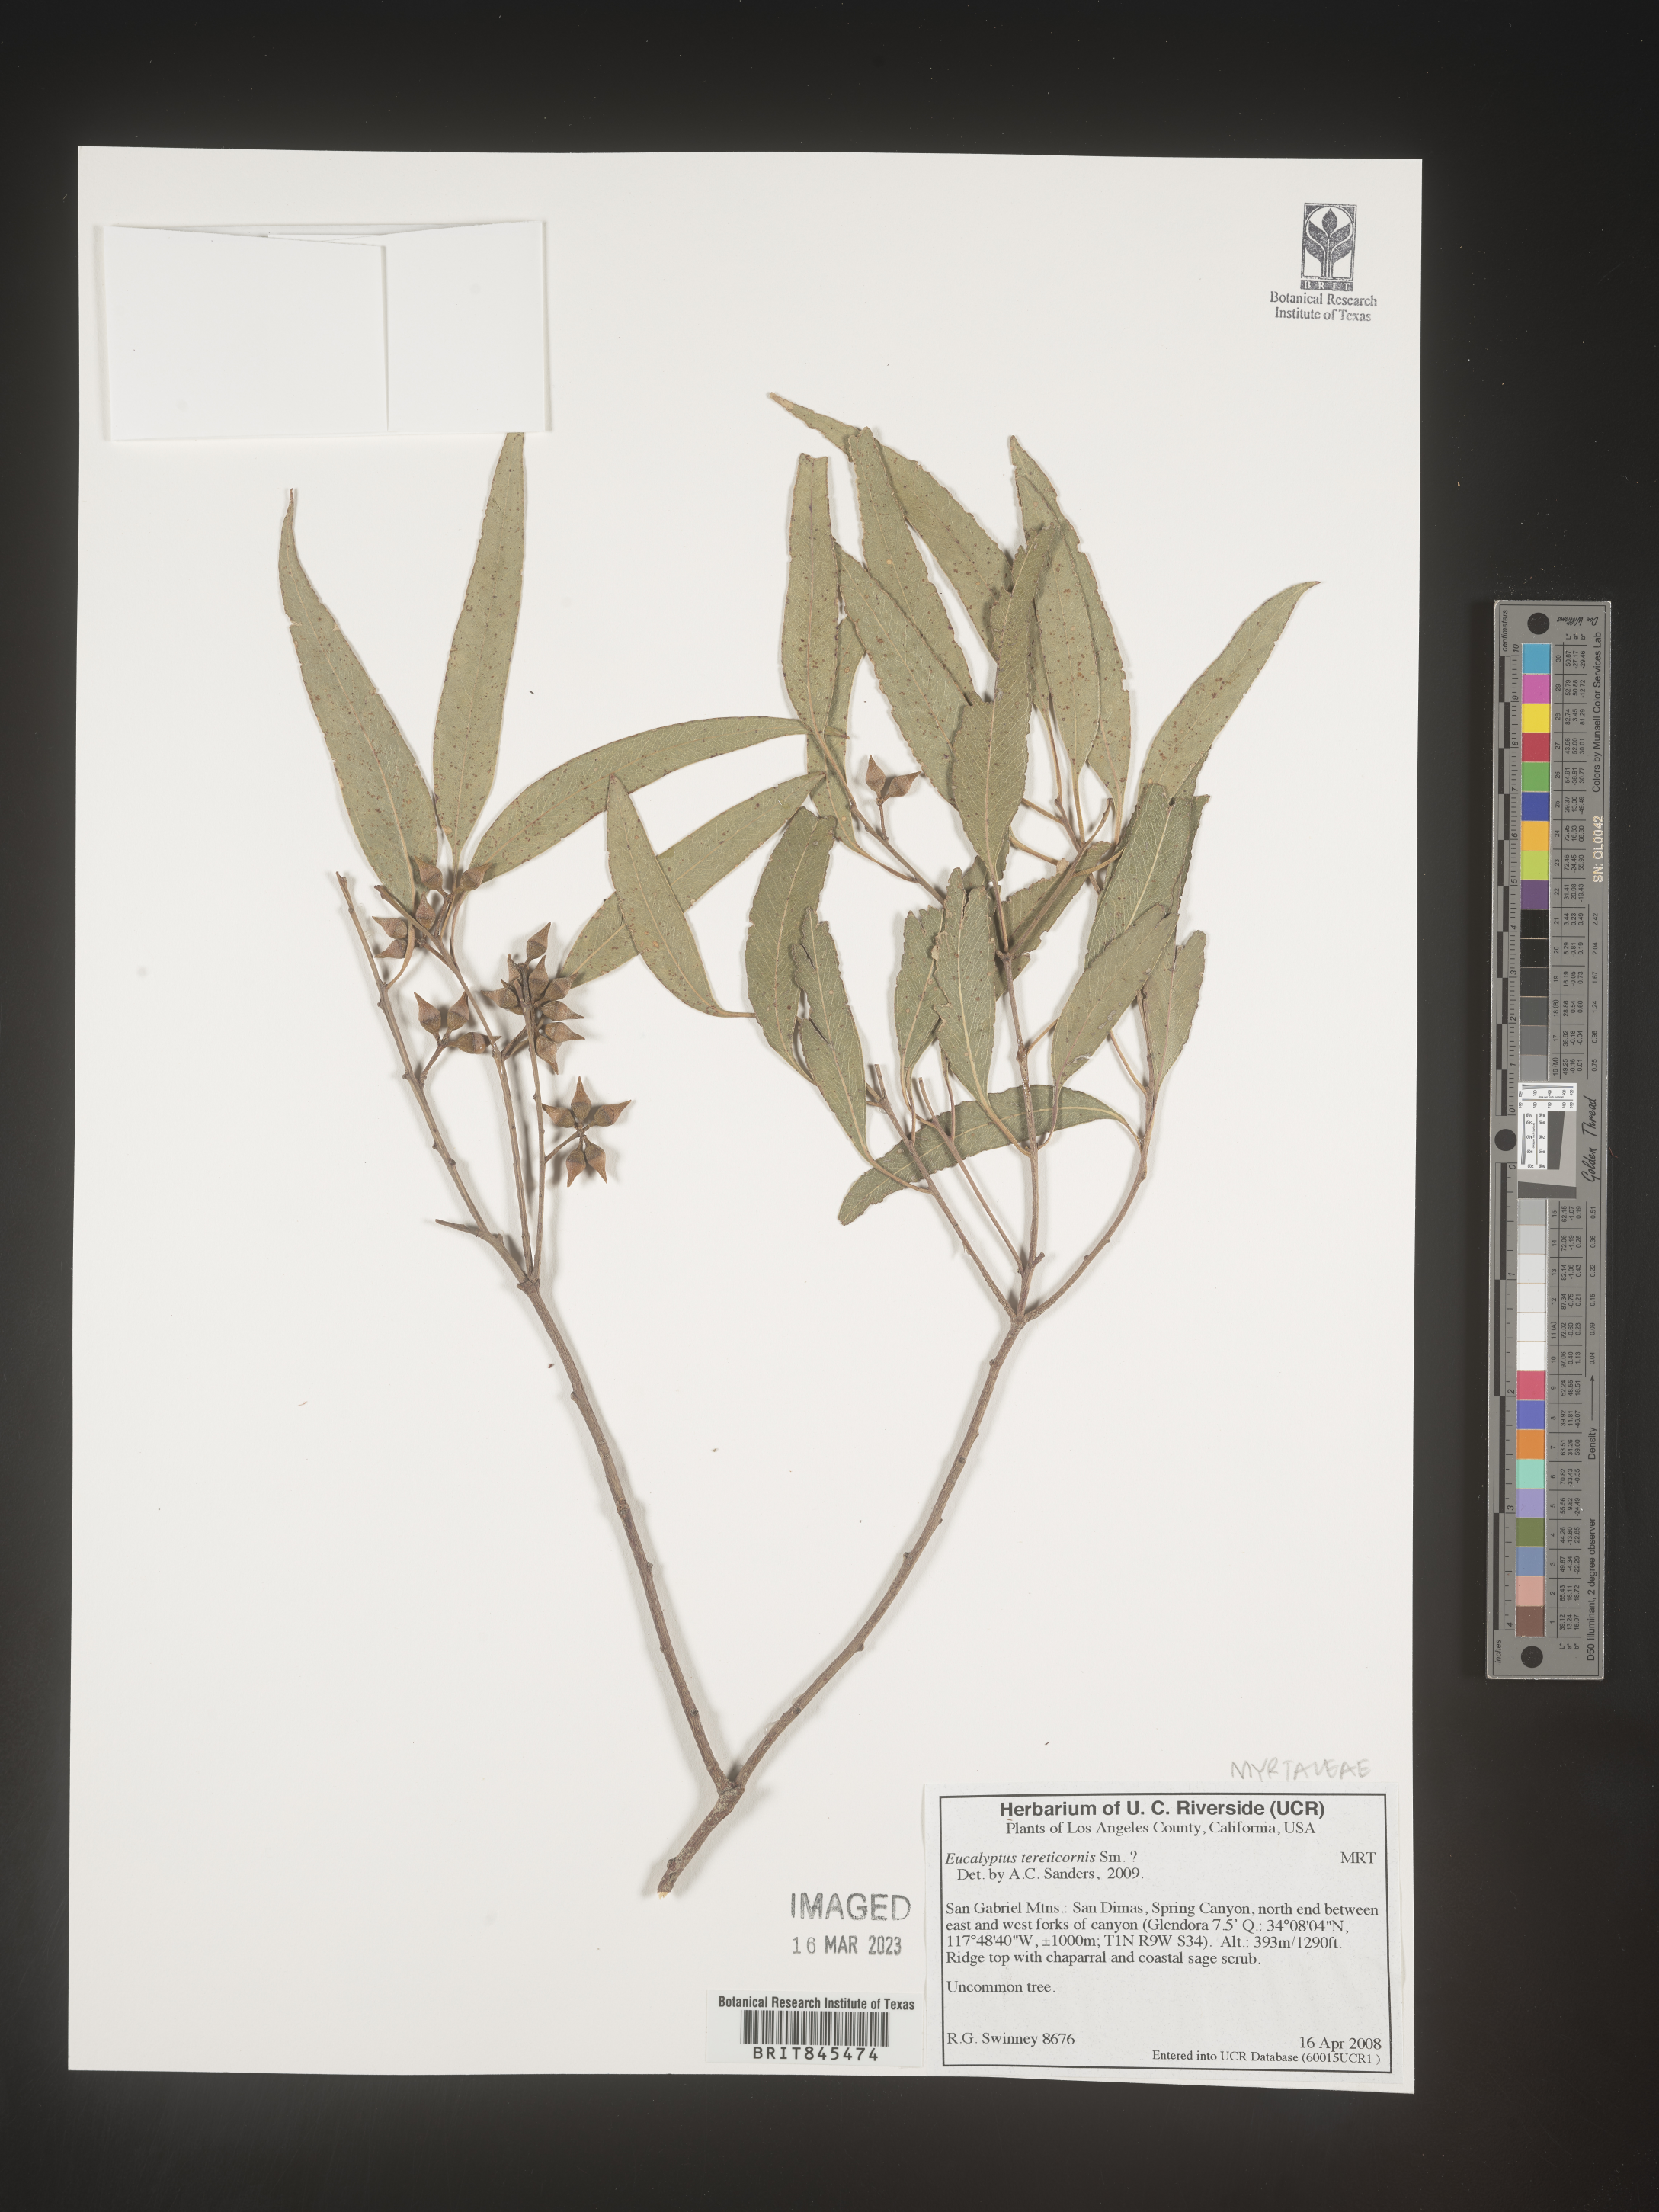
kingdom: Plantae
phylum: Tracheophyta
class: Magnoliopsida
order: Myrtales
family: Myrtaceae
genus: Eucalyptus
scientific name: Eucalyptus
